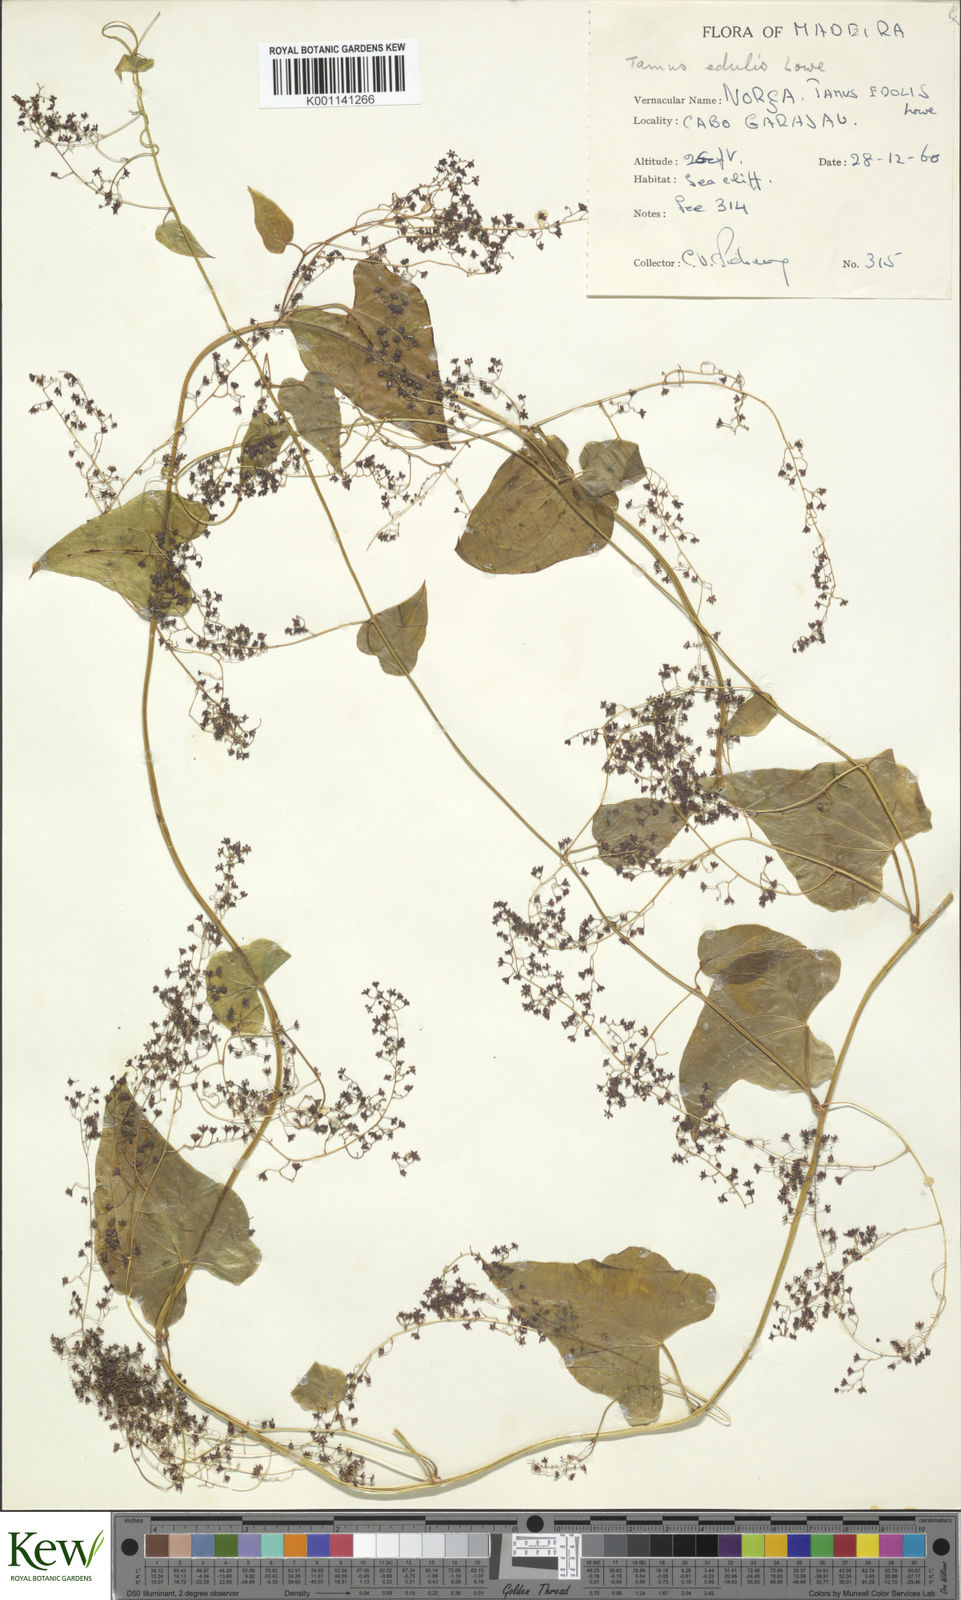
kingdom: Plantae
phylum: Tracheophyta
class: Liliopsida
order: Dioscoreales
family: Dioscoreaceae
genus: Dioscorea
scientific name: Dioscorea
